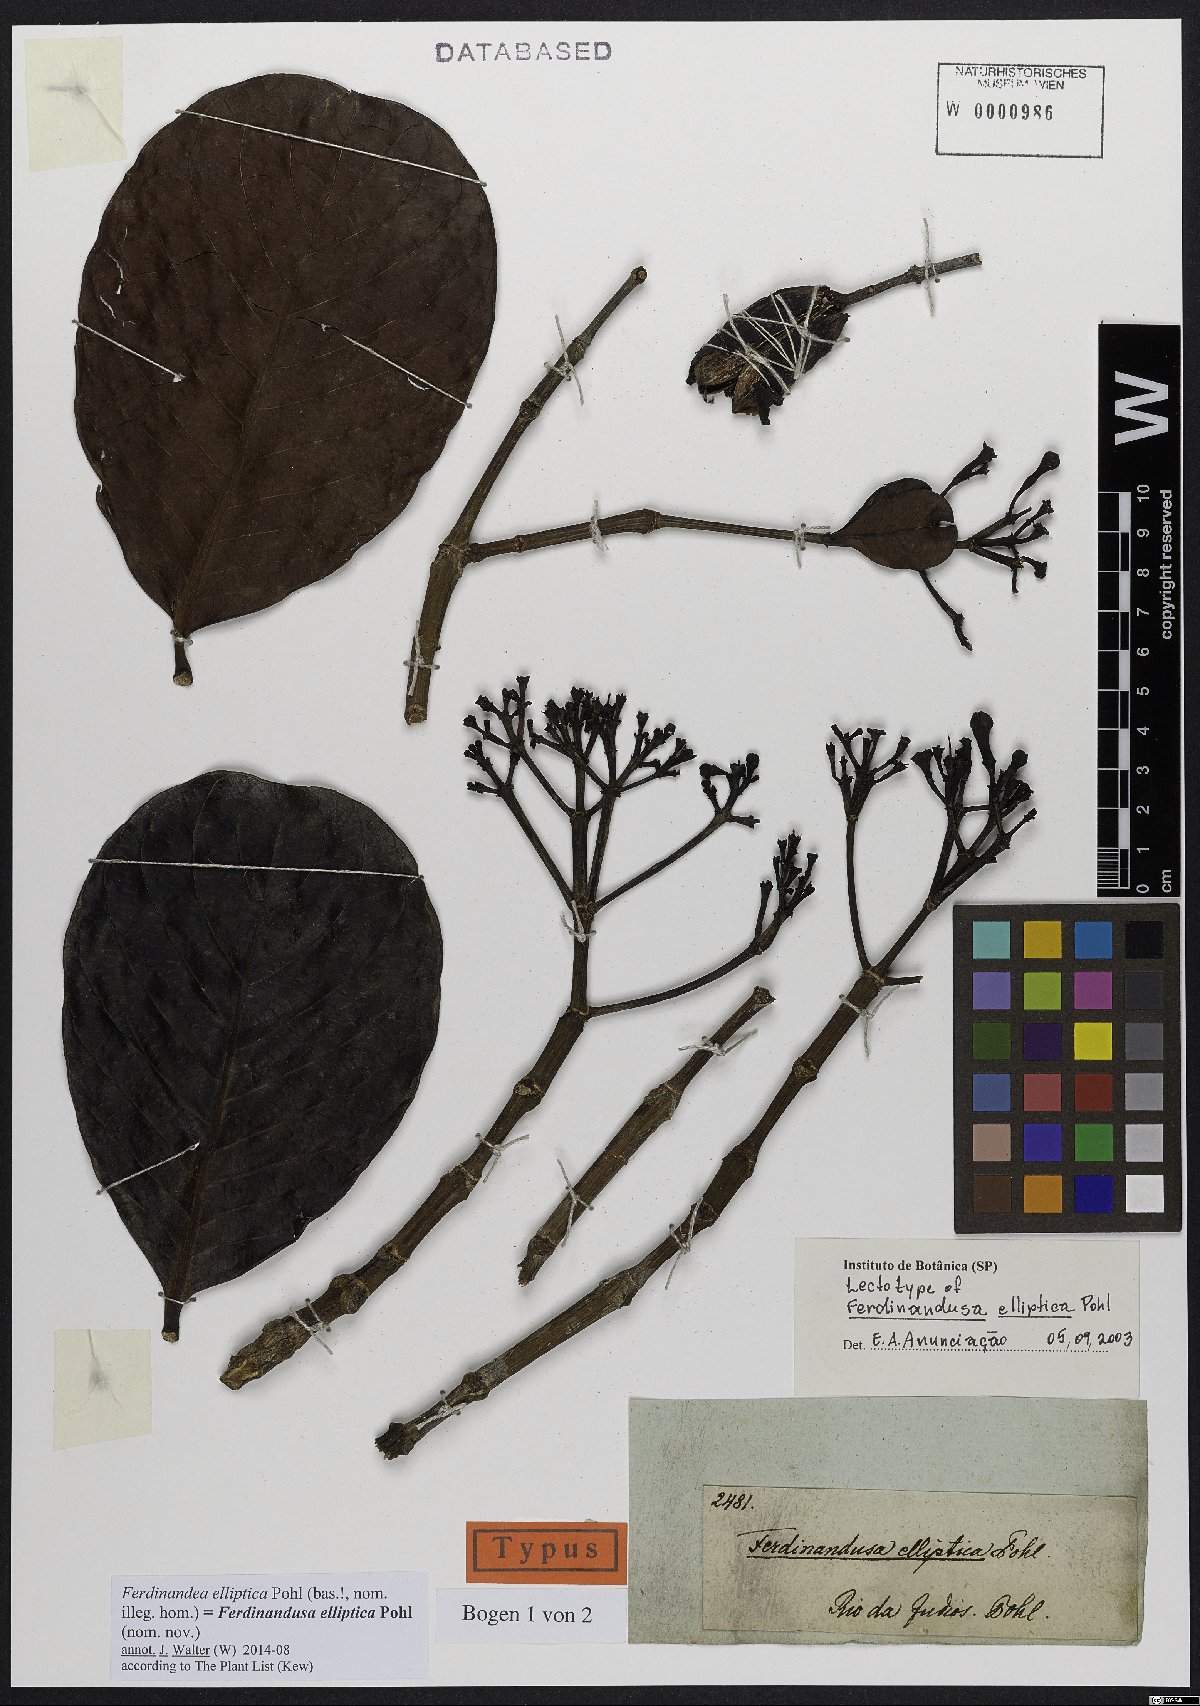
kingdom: Plantae
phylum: Tracheophyta
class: Magnoliopsida
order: Gentianales
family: Rubiaceae
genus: Ferdinandusa
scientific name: Ferdinandusa elliptica
